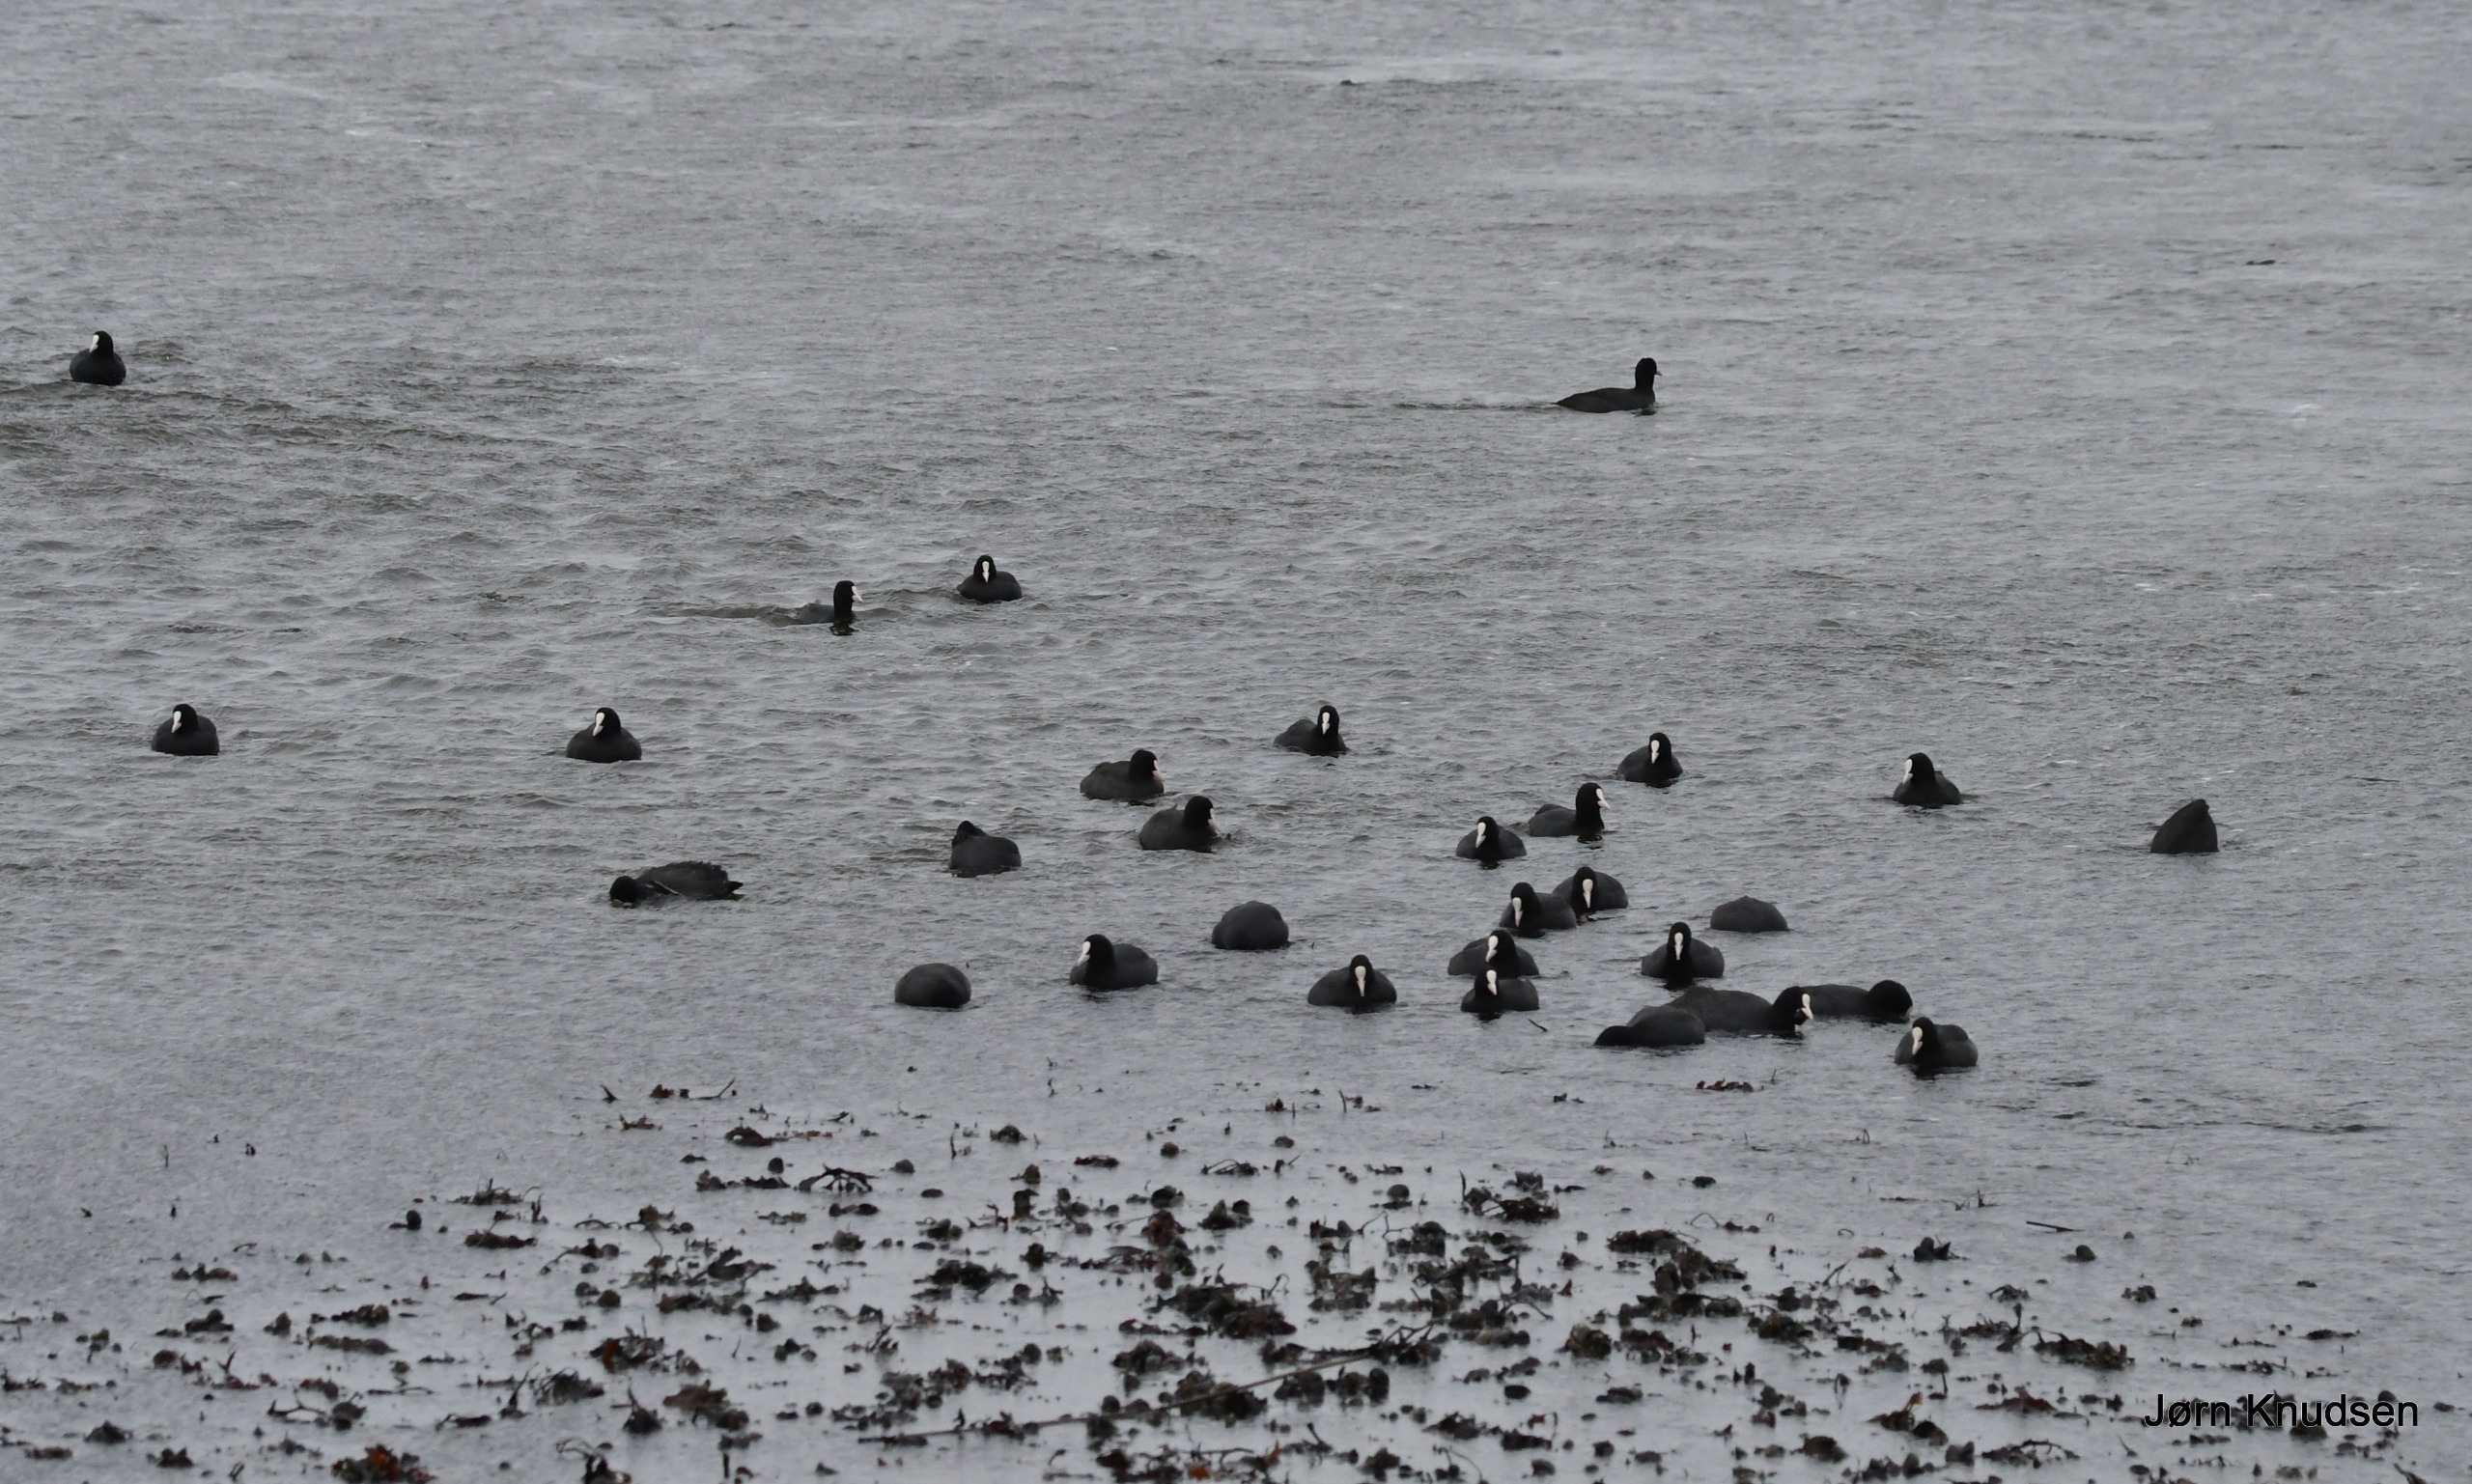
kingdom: Animalia
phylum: Chordata
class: Aves
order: Gruiformes
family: Rallidae
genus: Fulica
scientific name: Fulica atra
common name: Blishøne
